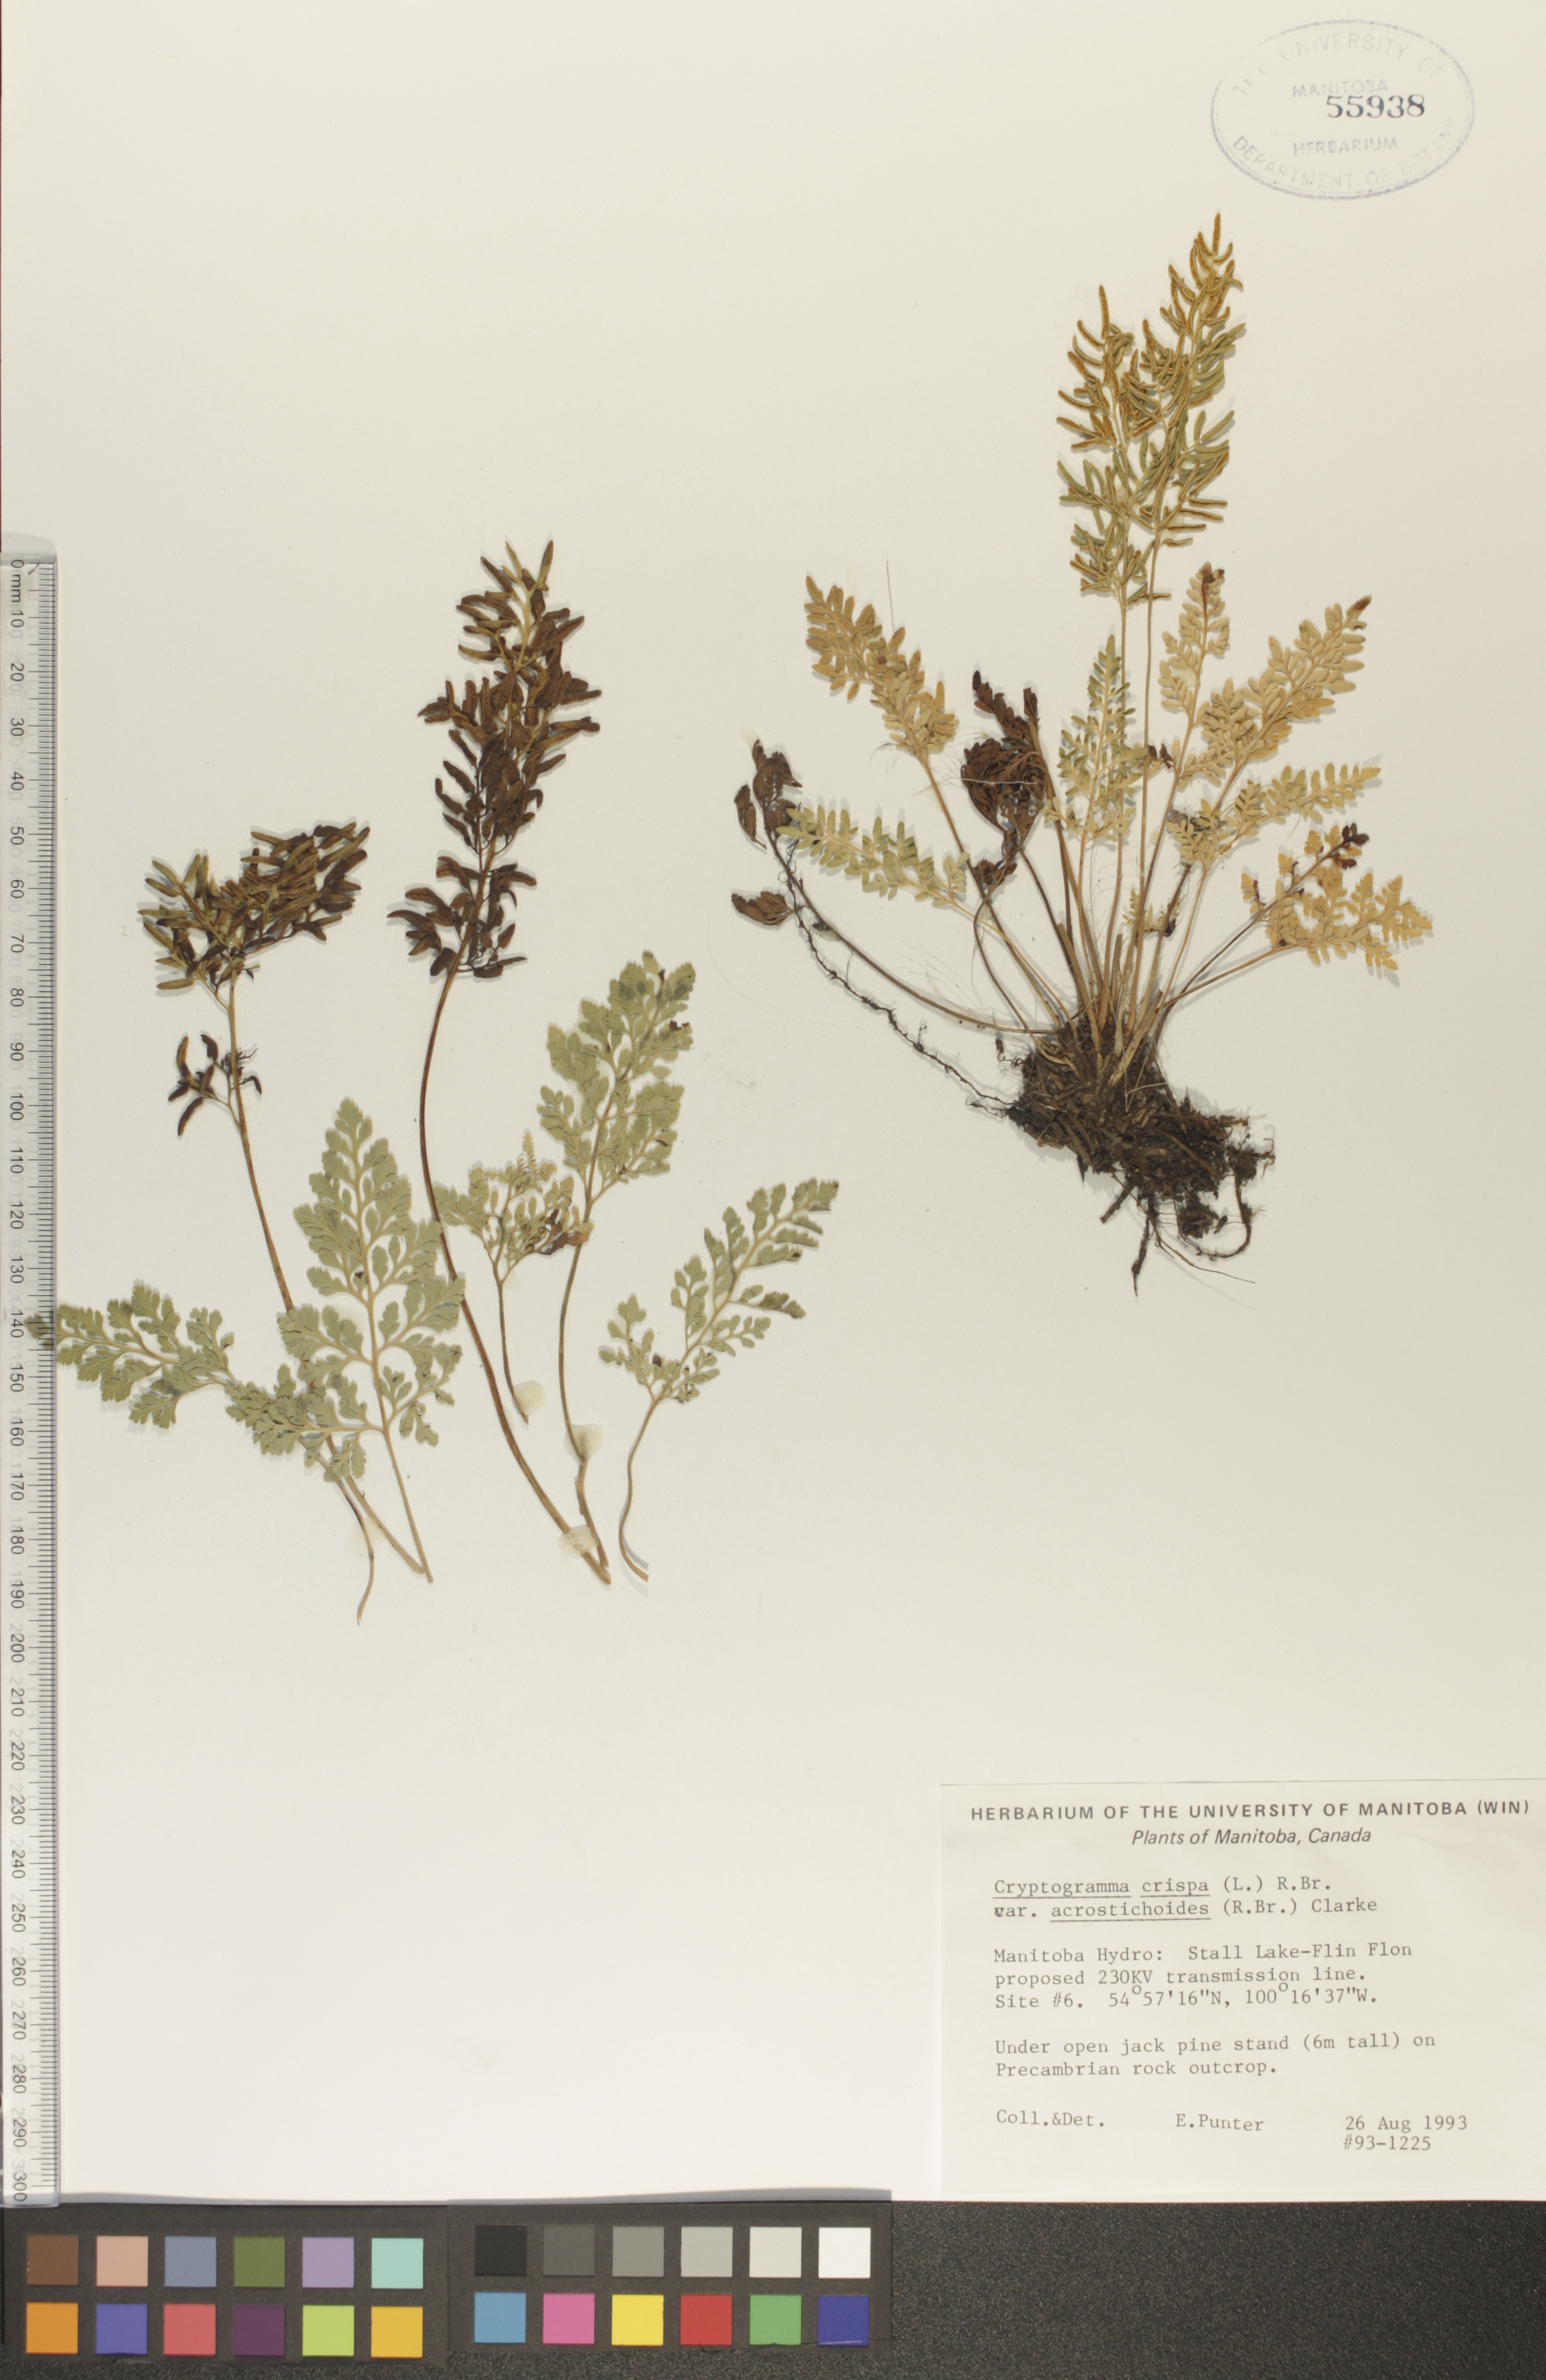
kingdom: Plantae
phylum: Tracheophyta
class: Polypodiopsida
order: Polypodiales
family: Pteridaceae
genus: Cryptogramma
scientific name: Cryptogramma acrostichoides
